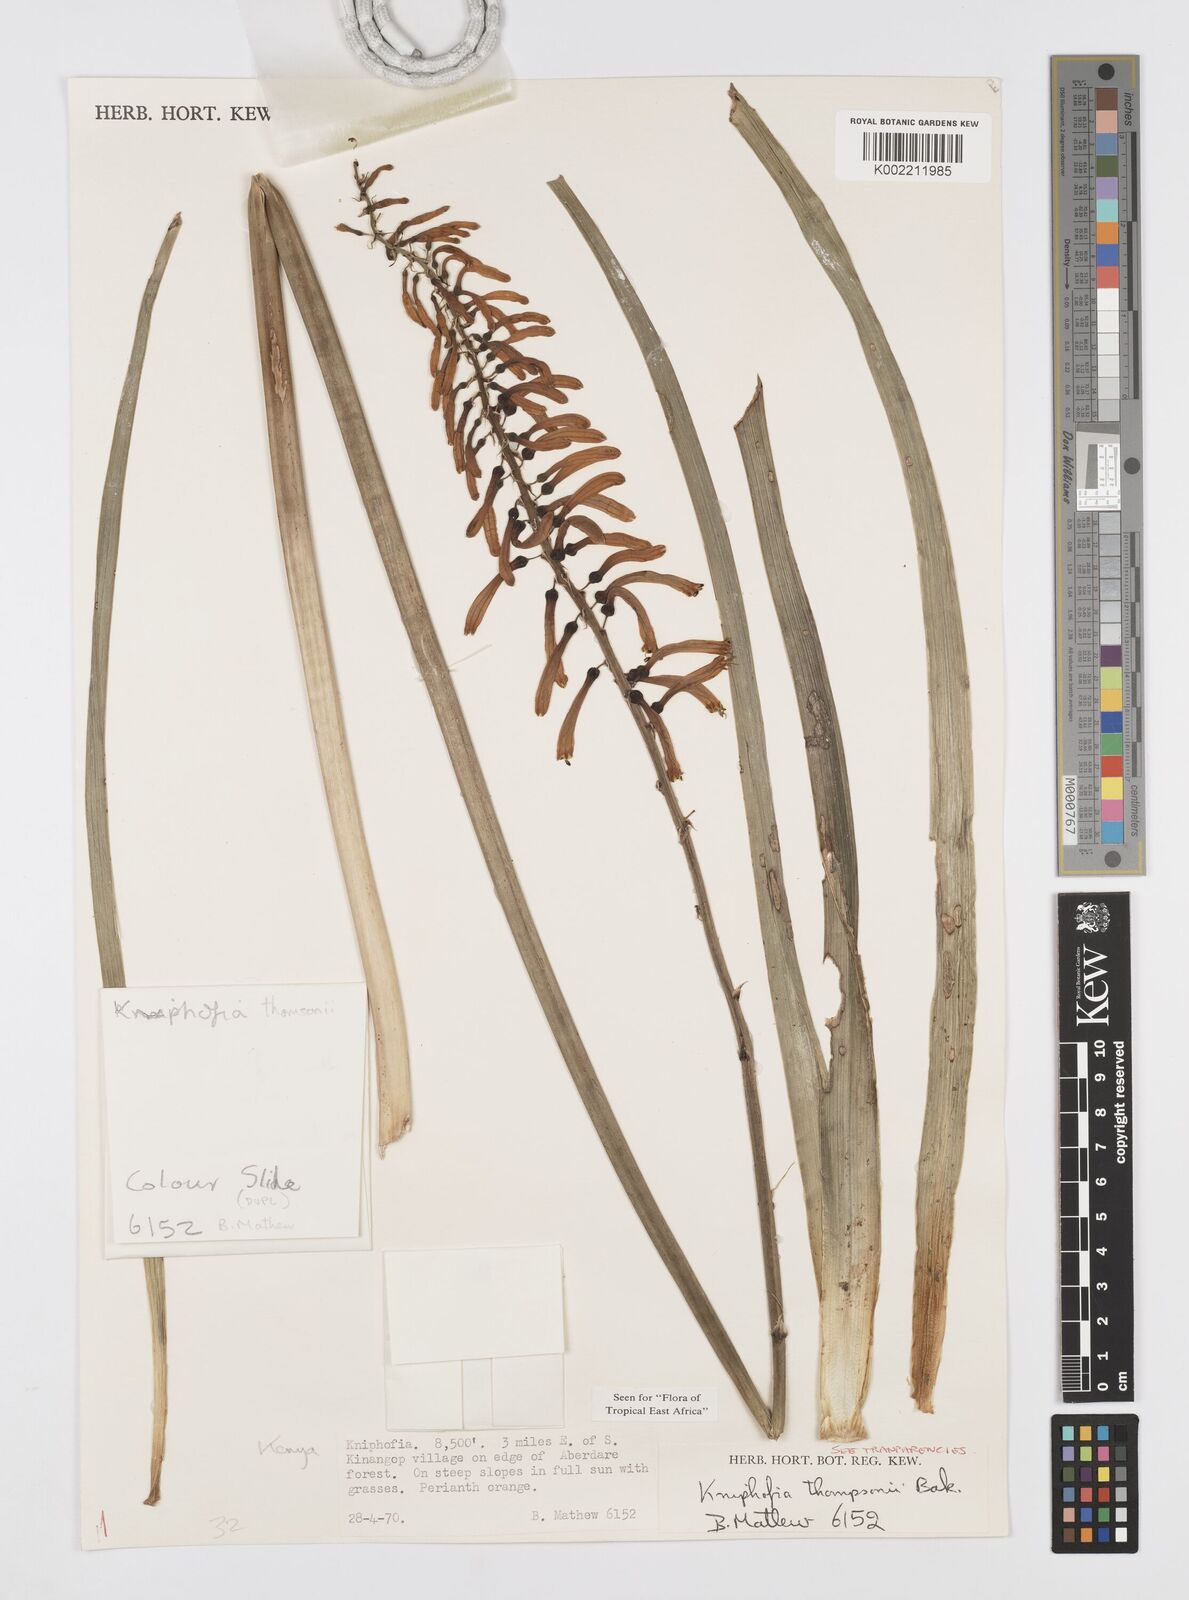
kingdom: Plantae
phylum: Tracheophyta
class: Liliopsida
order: Asparagales
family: Asphodelaceae
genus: Kniphofia
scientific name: Kniphofia thomsonii
